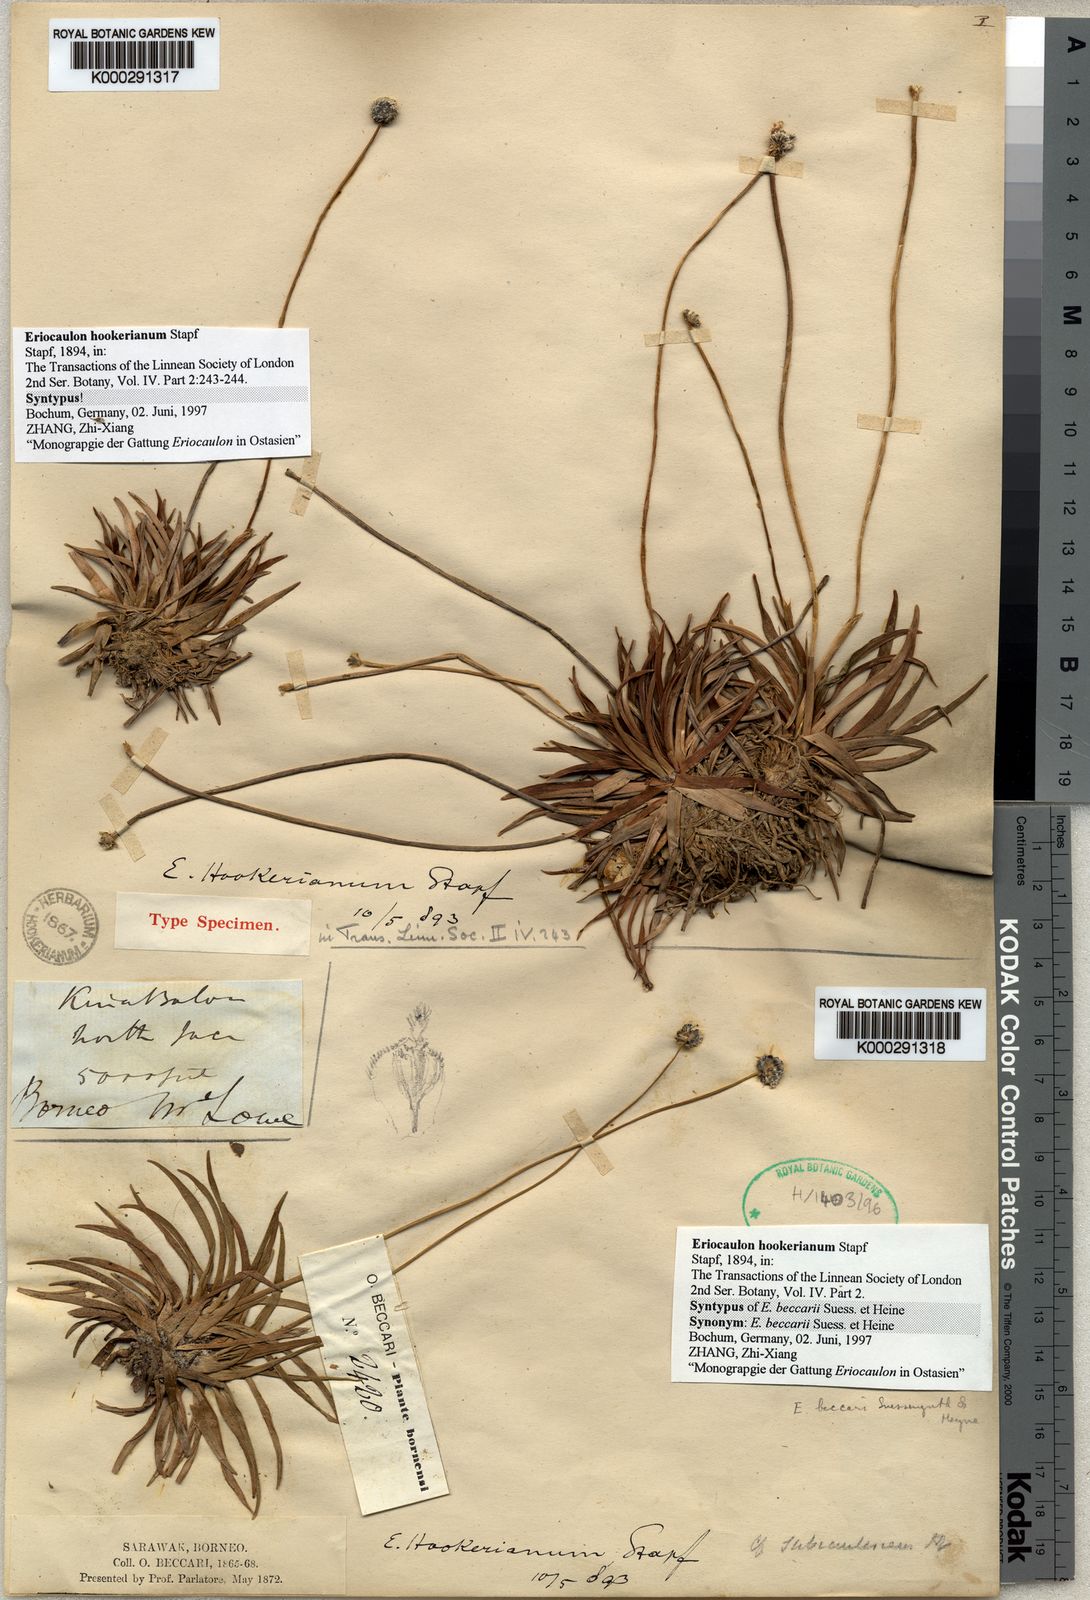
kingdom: Plantae
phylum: Tracheophyta
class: Liliopsida
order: Poales
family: Eriocaulaceae
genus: Eriocaulon
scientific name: Eriocaulon hookerianum
